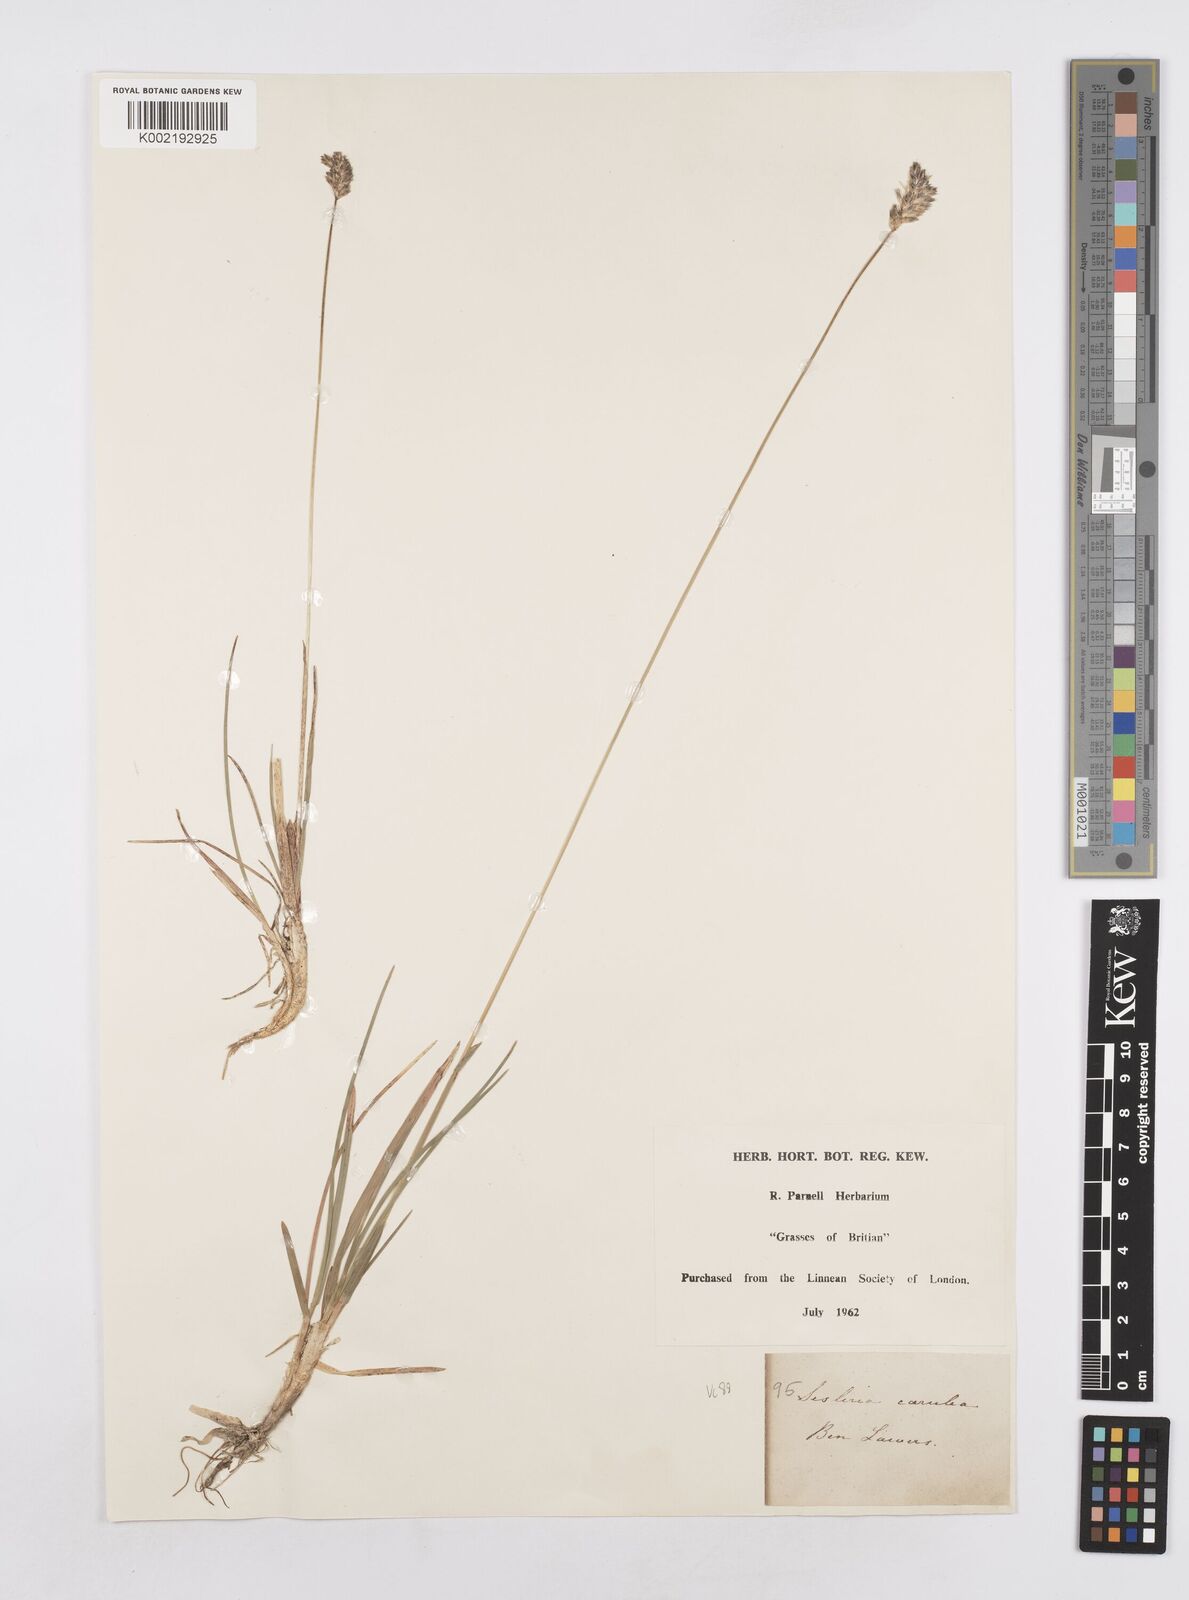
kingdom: Plantae
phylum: Tracheophyta
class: Liliopsida
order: Poales
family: Poaceae
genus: Sesleria
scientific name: Sesleria caerulea
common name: Blue moor-grass
